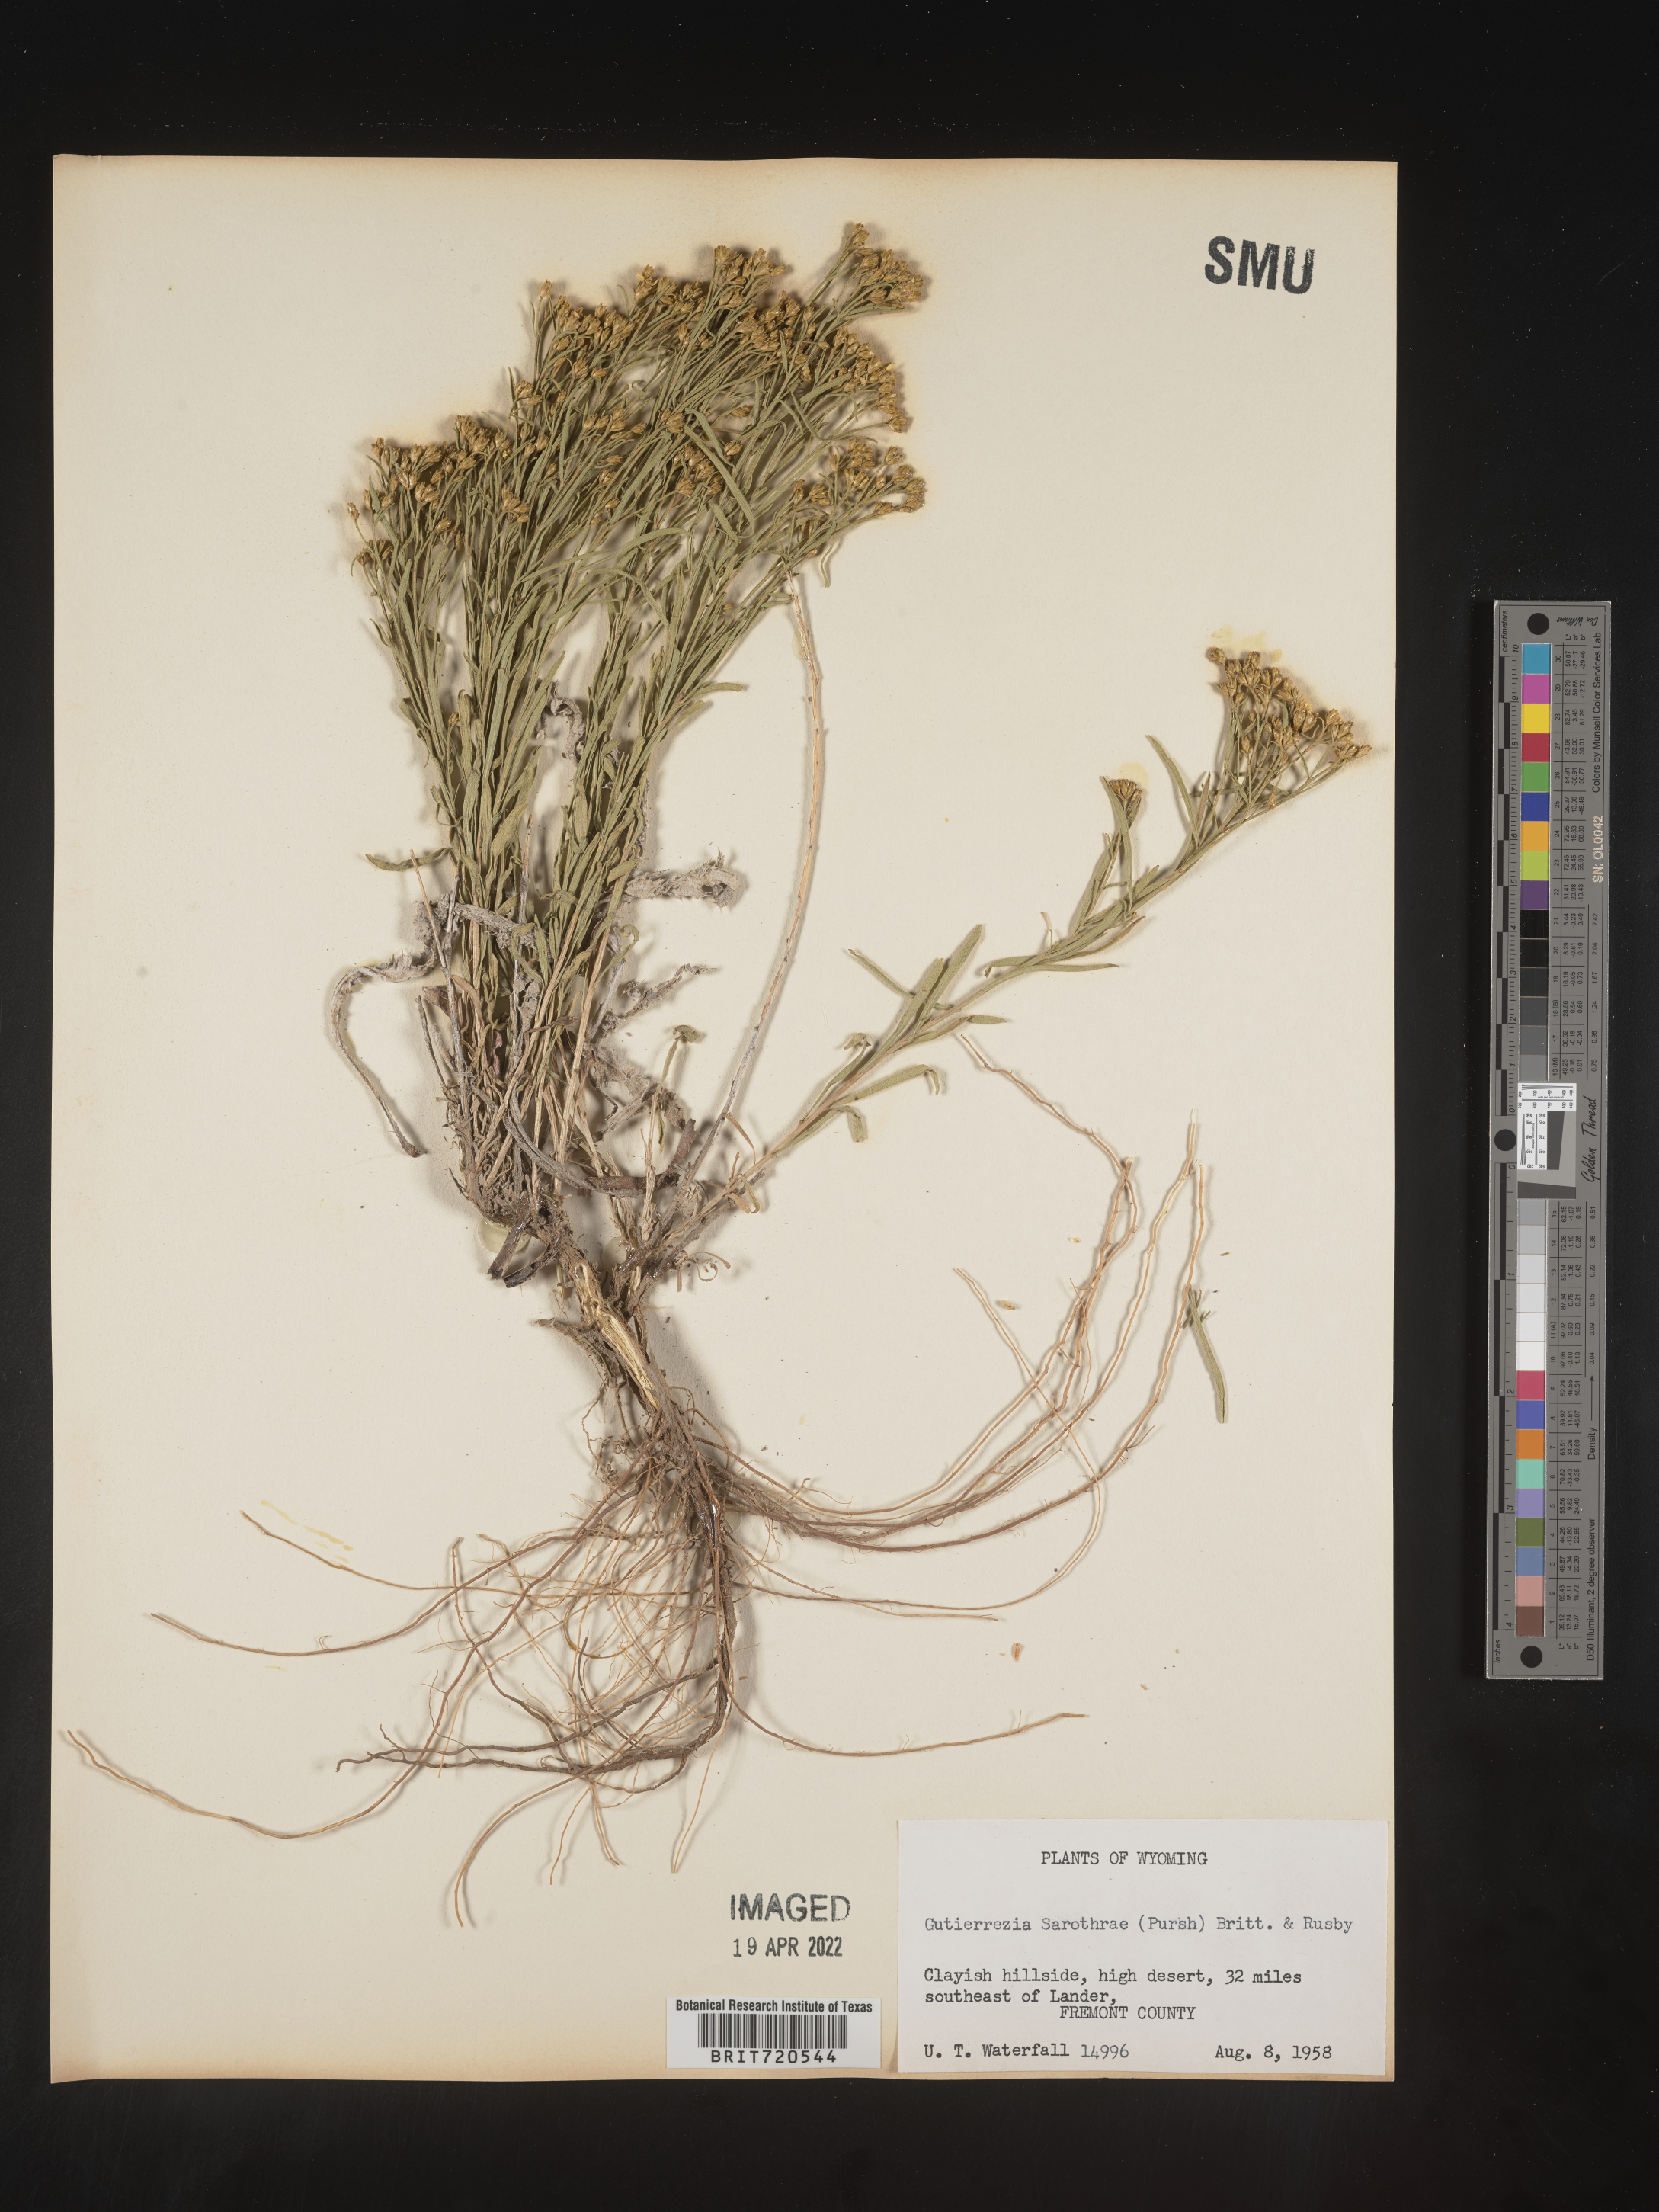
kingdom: Plantae
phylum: Tracheophyta
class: Magnoliopsida
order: Asterales
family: Asteraceae
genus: Gutierrezia
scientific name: Gutierrezia sarothrae
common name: Broom snakeweed
